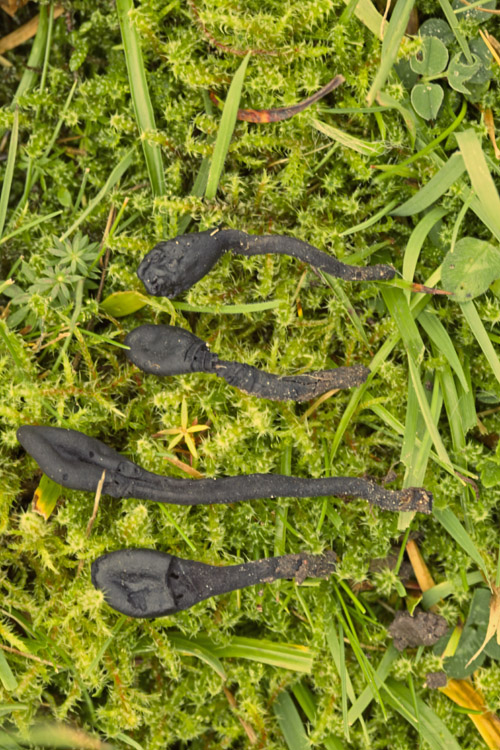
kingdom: Fungi
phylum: Ascomycota
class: Geoglossomycetes
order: Geoglossales
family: Geoglossaceae
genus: Trichoglossum
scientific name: Trichoglossum hirsutum
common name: håret jordtunge
